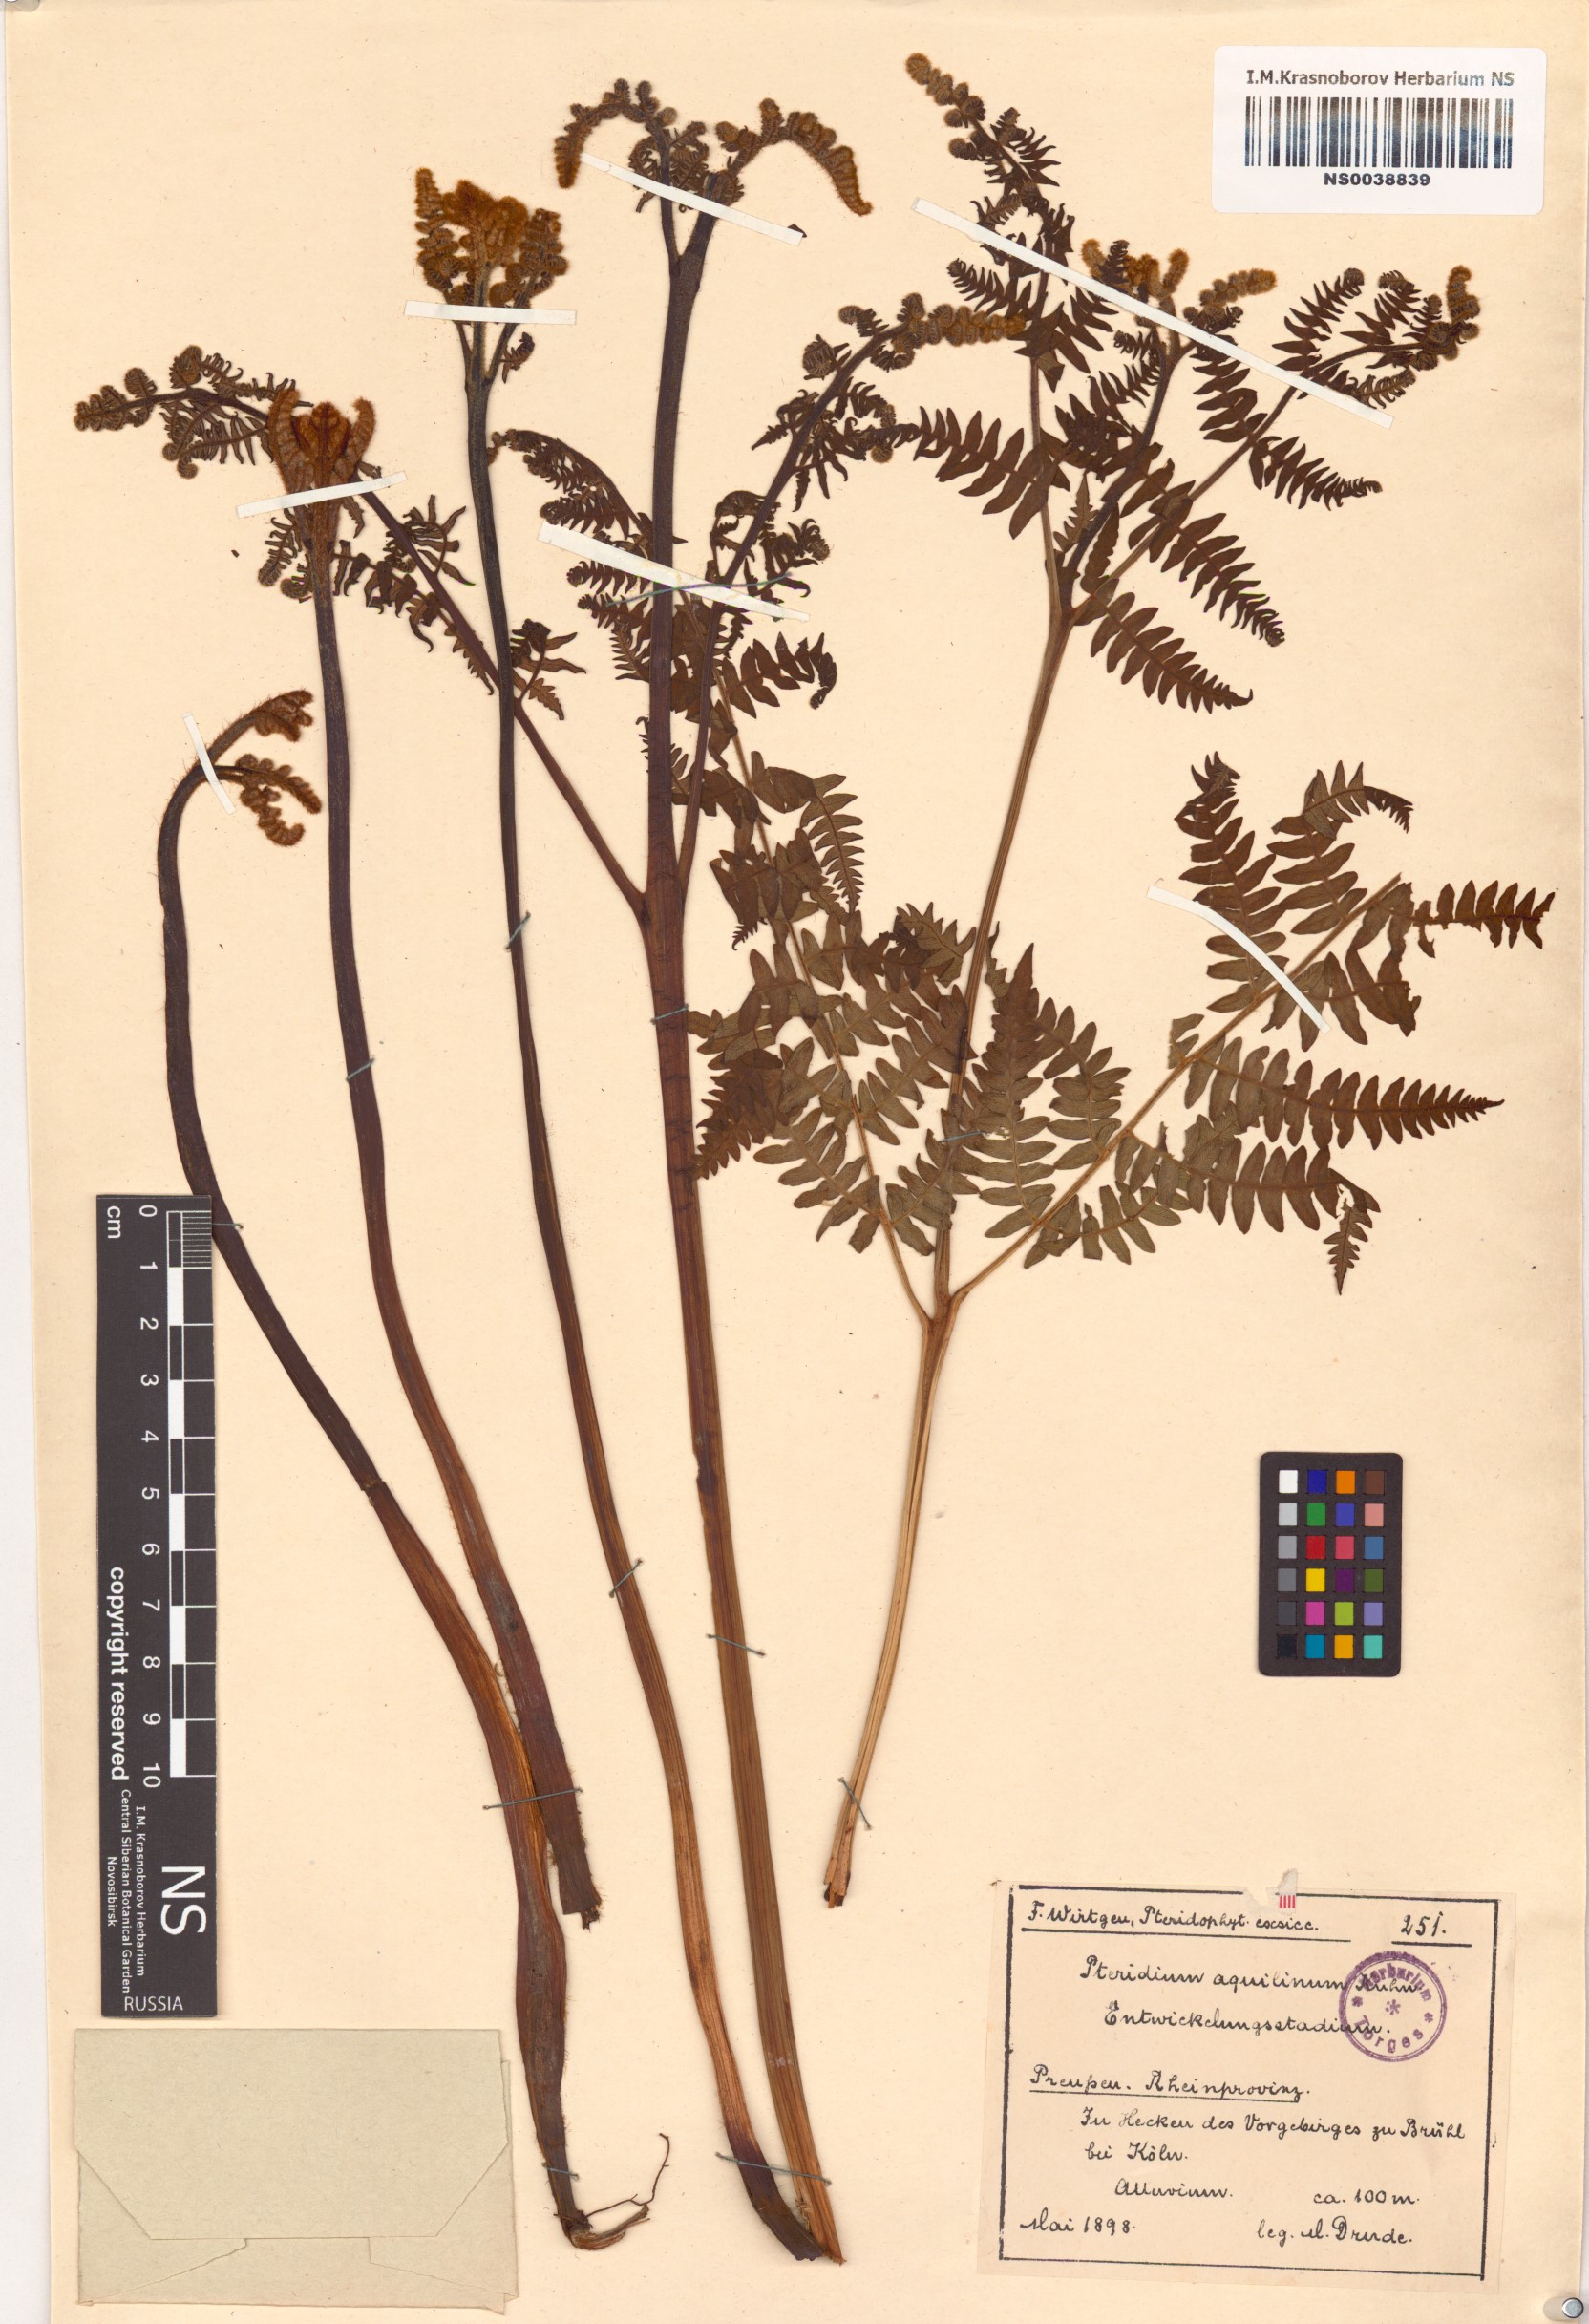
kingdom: Plantae
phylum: Tracheophyta
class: Polypodiopsida
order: Polypodiales
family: Dennstaedtiaceae
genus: Pteridium
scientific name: Pteridium aquilinum
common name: Bracken
